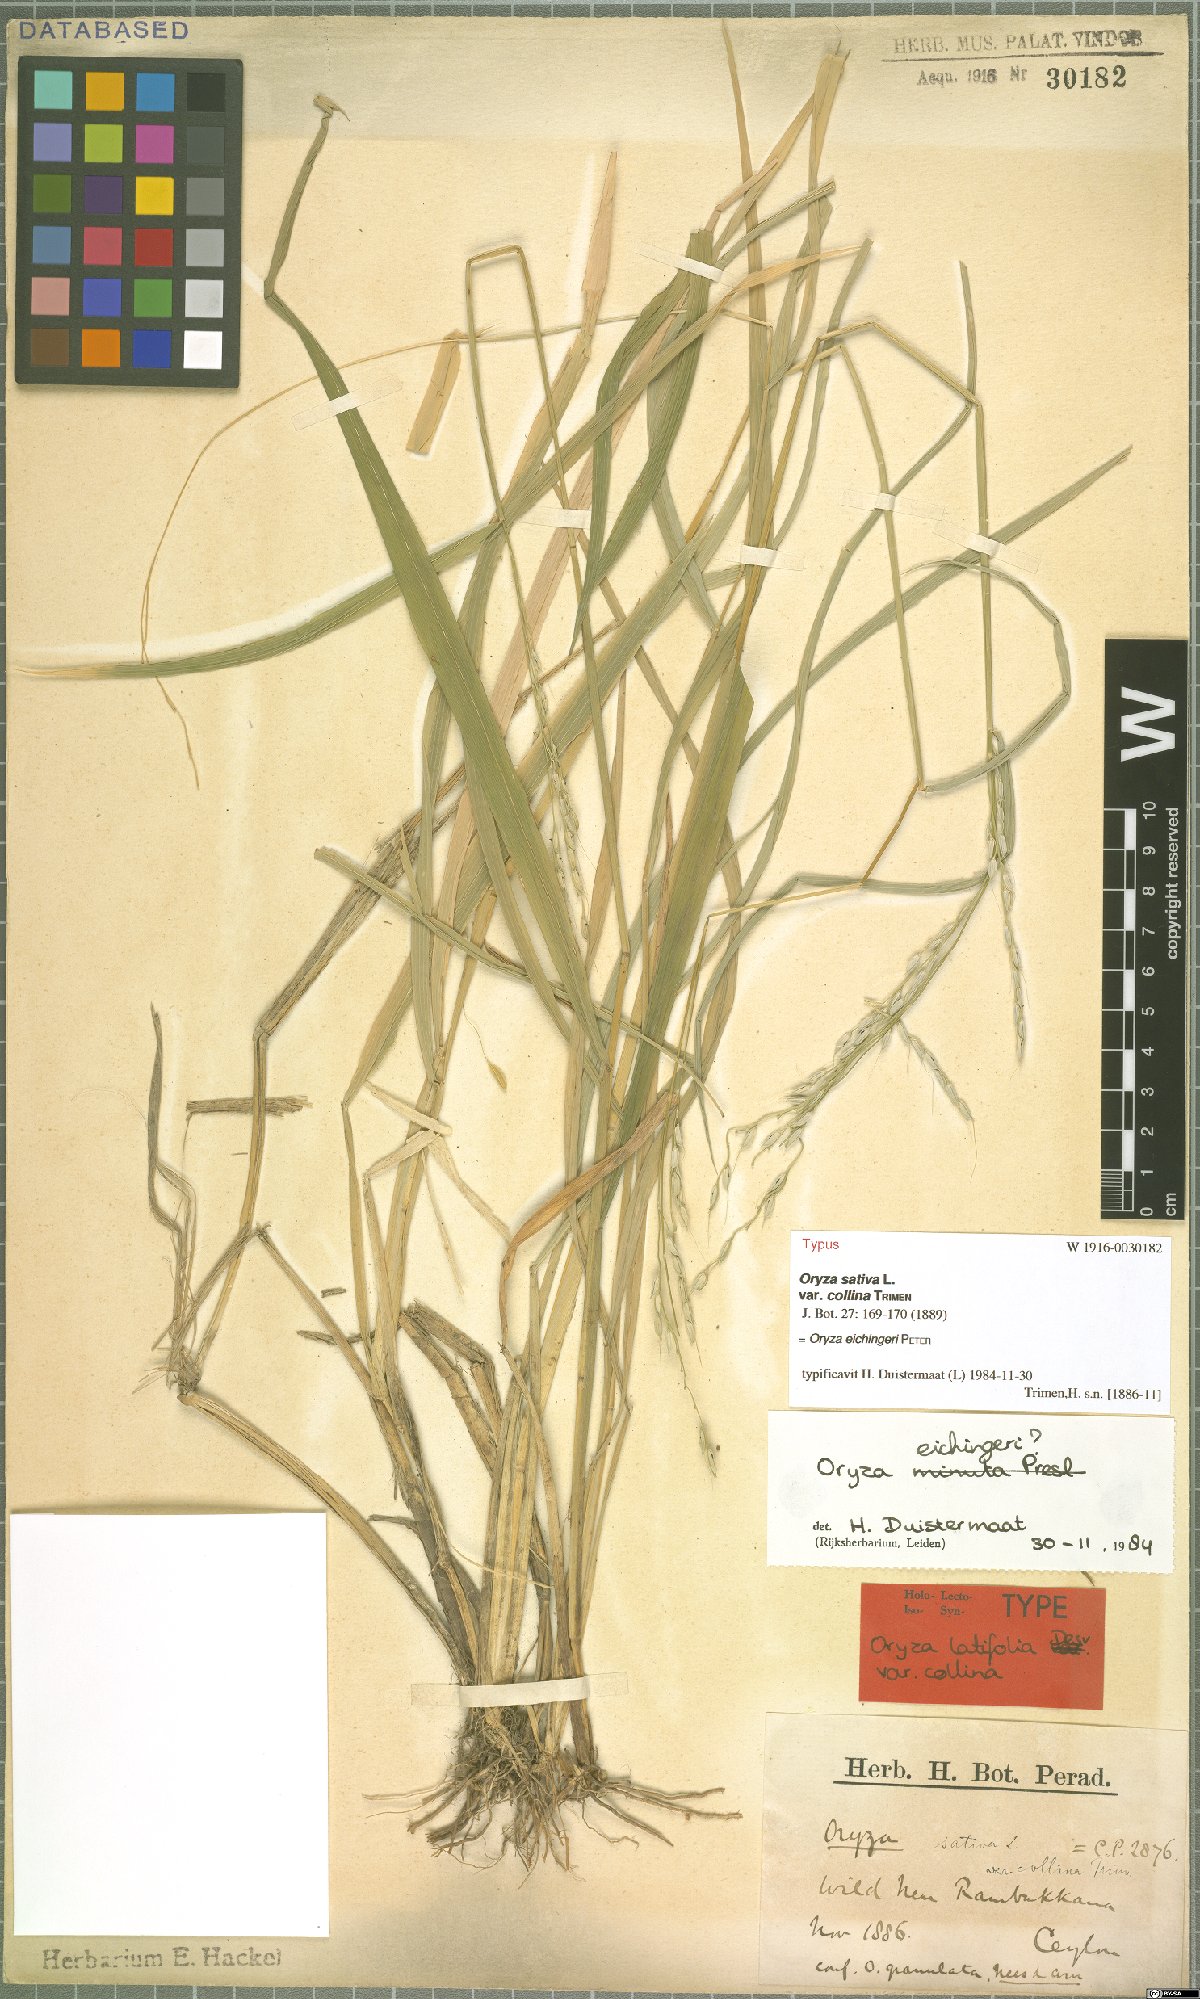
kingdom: Plantae
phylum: Tracheophyta
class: Liliopsida
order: Poales
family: Poaceae
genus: Oryza
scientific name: Oryza eichingeri
